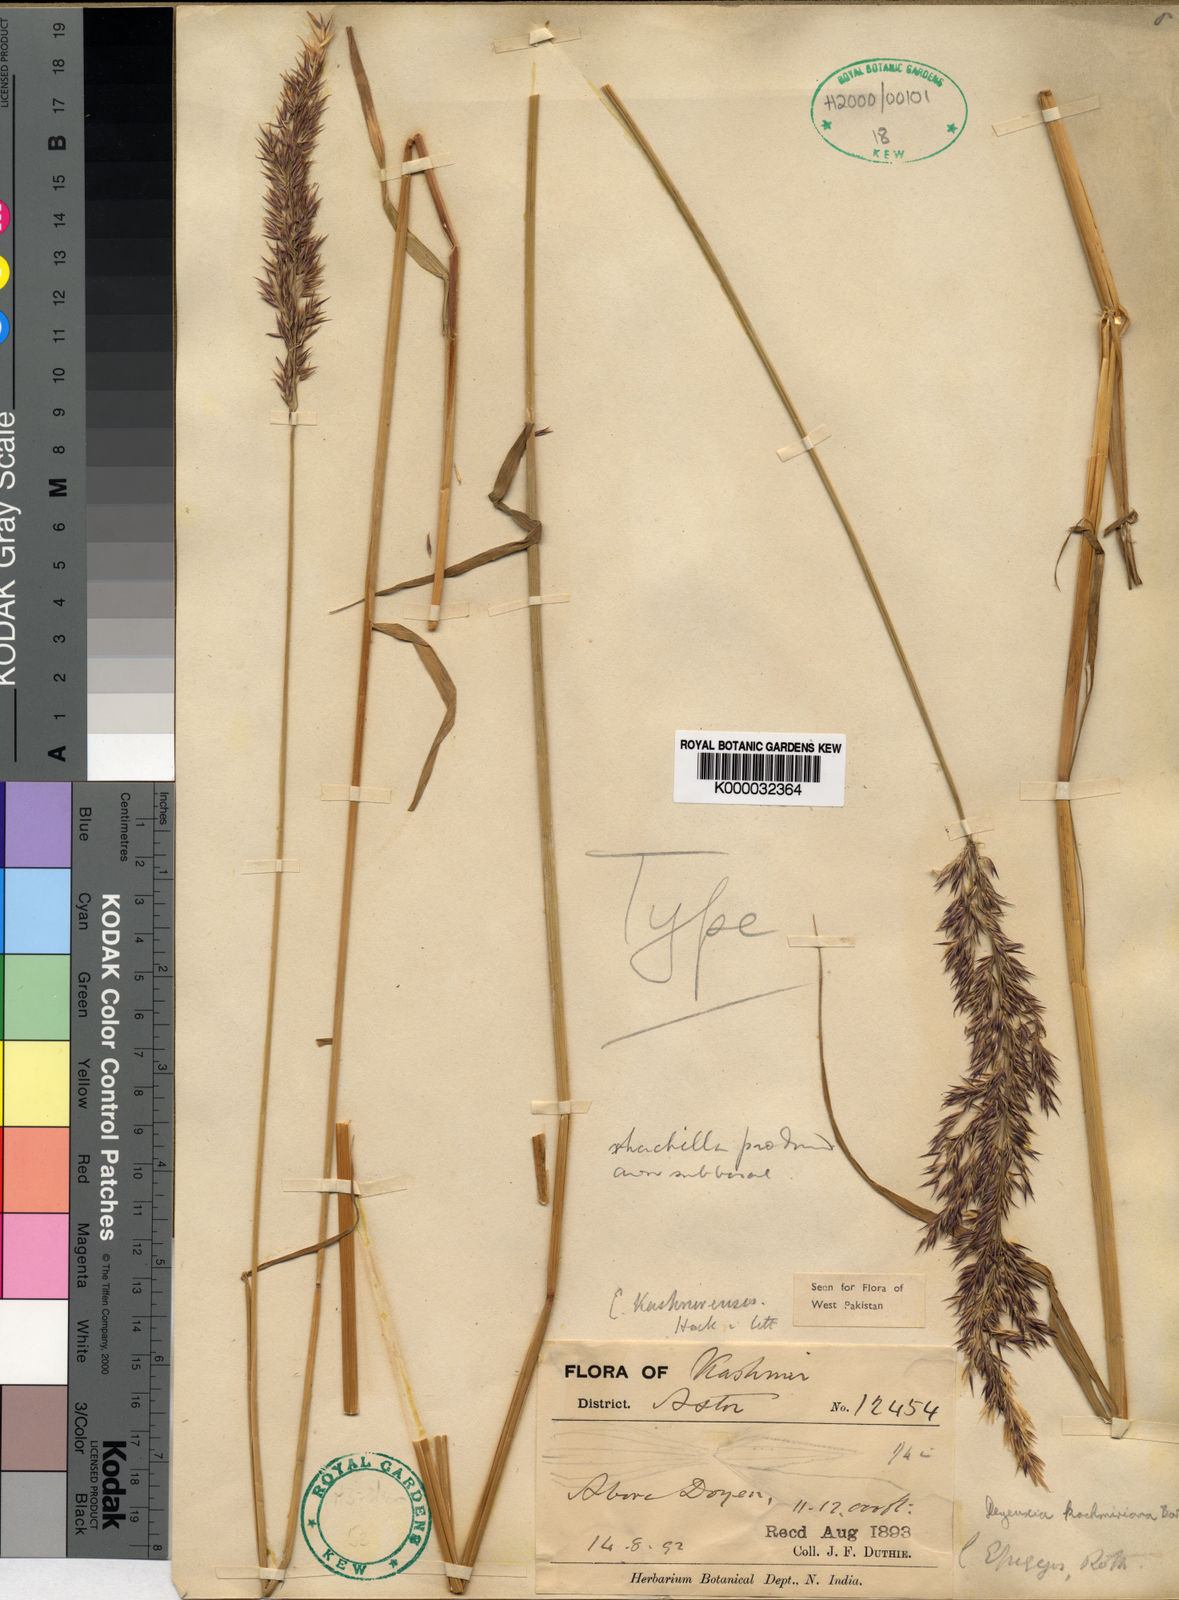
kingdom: Plantae
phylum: Tracheophyta
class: Liliopsida
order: Poales
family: Poaceae
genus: Calamagrostis
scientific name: Calamagrostis decora
